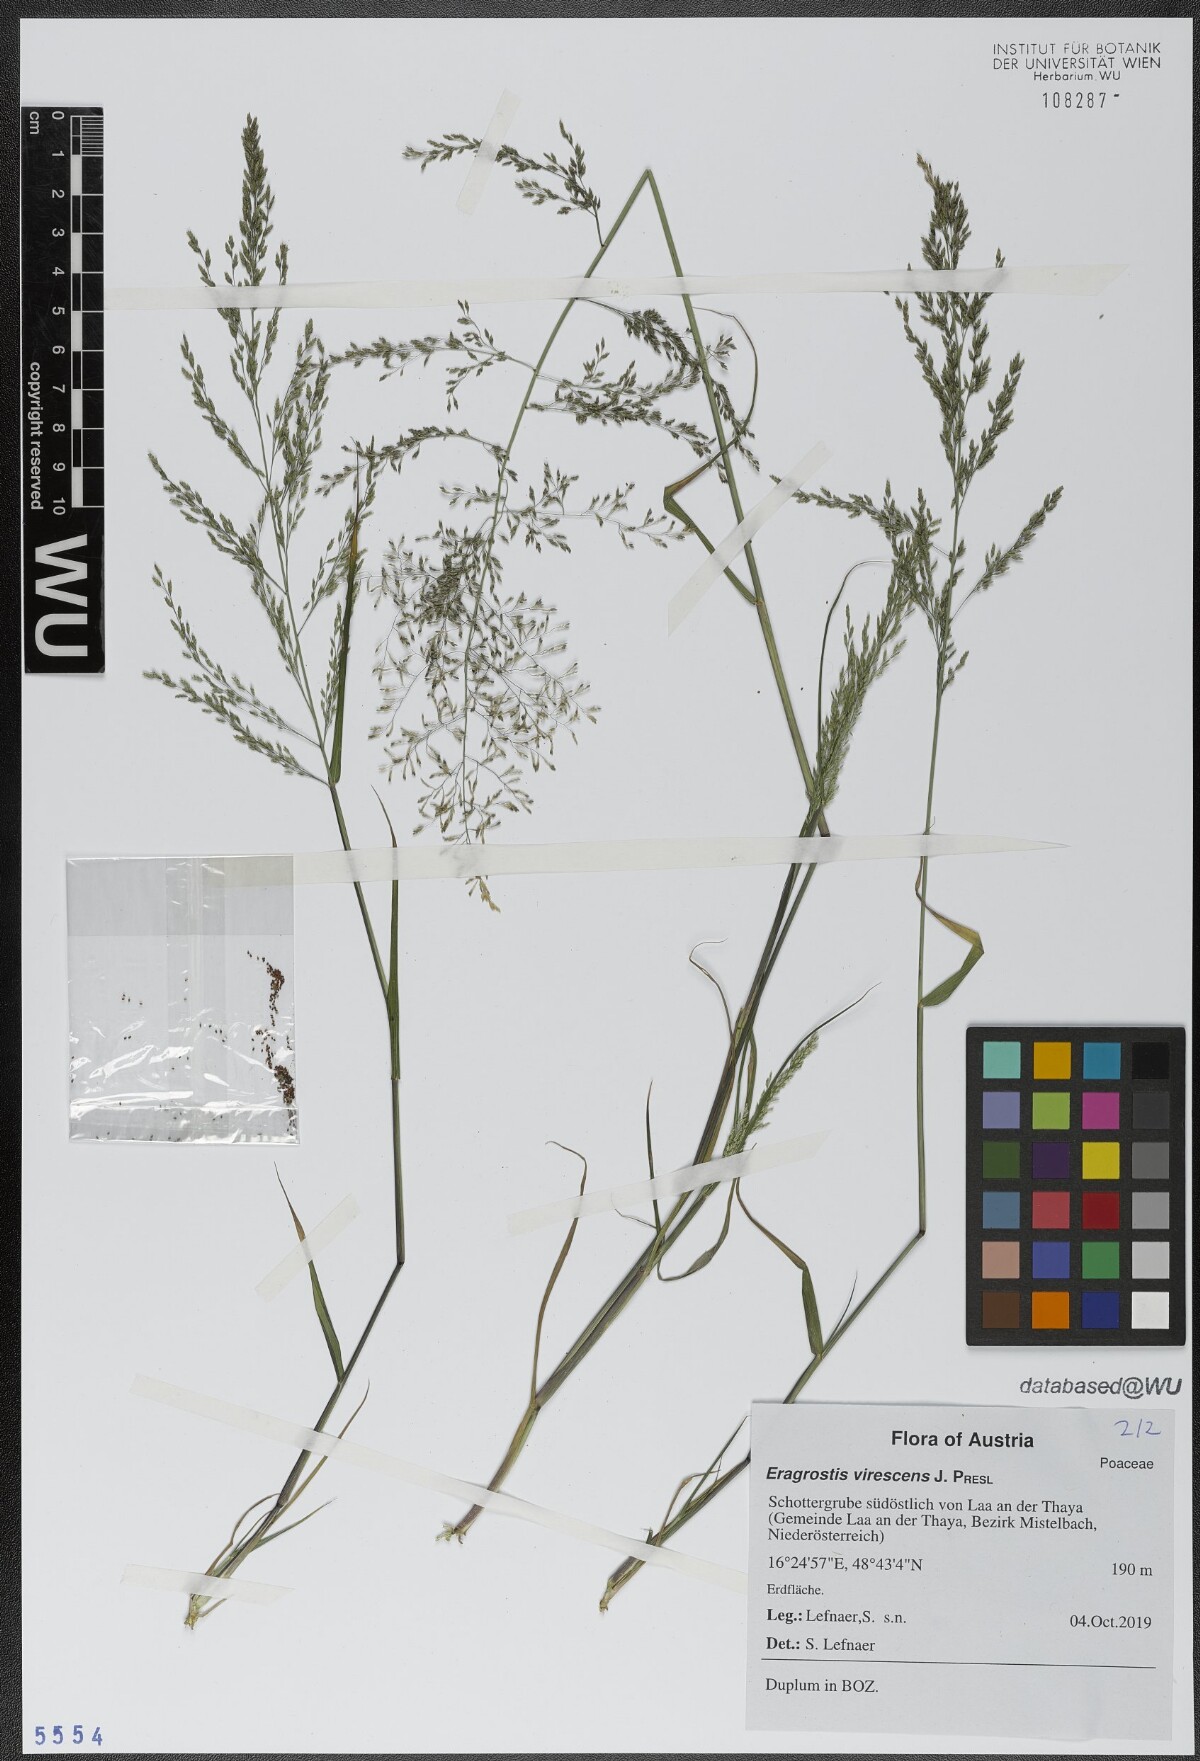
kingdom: Plantae
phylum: Tracheophyta
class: Liliopsida
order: Poales
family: Poaceae
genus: Eragrostis
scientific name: Eragrostis virescens
